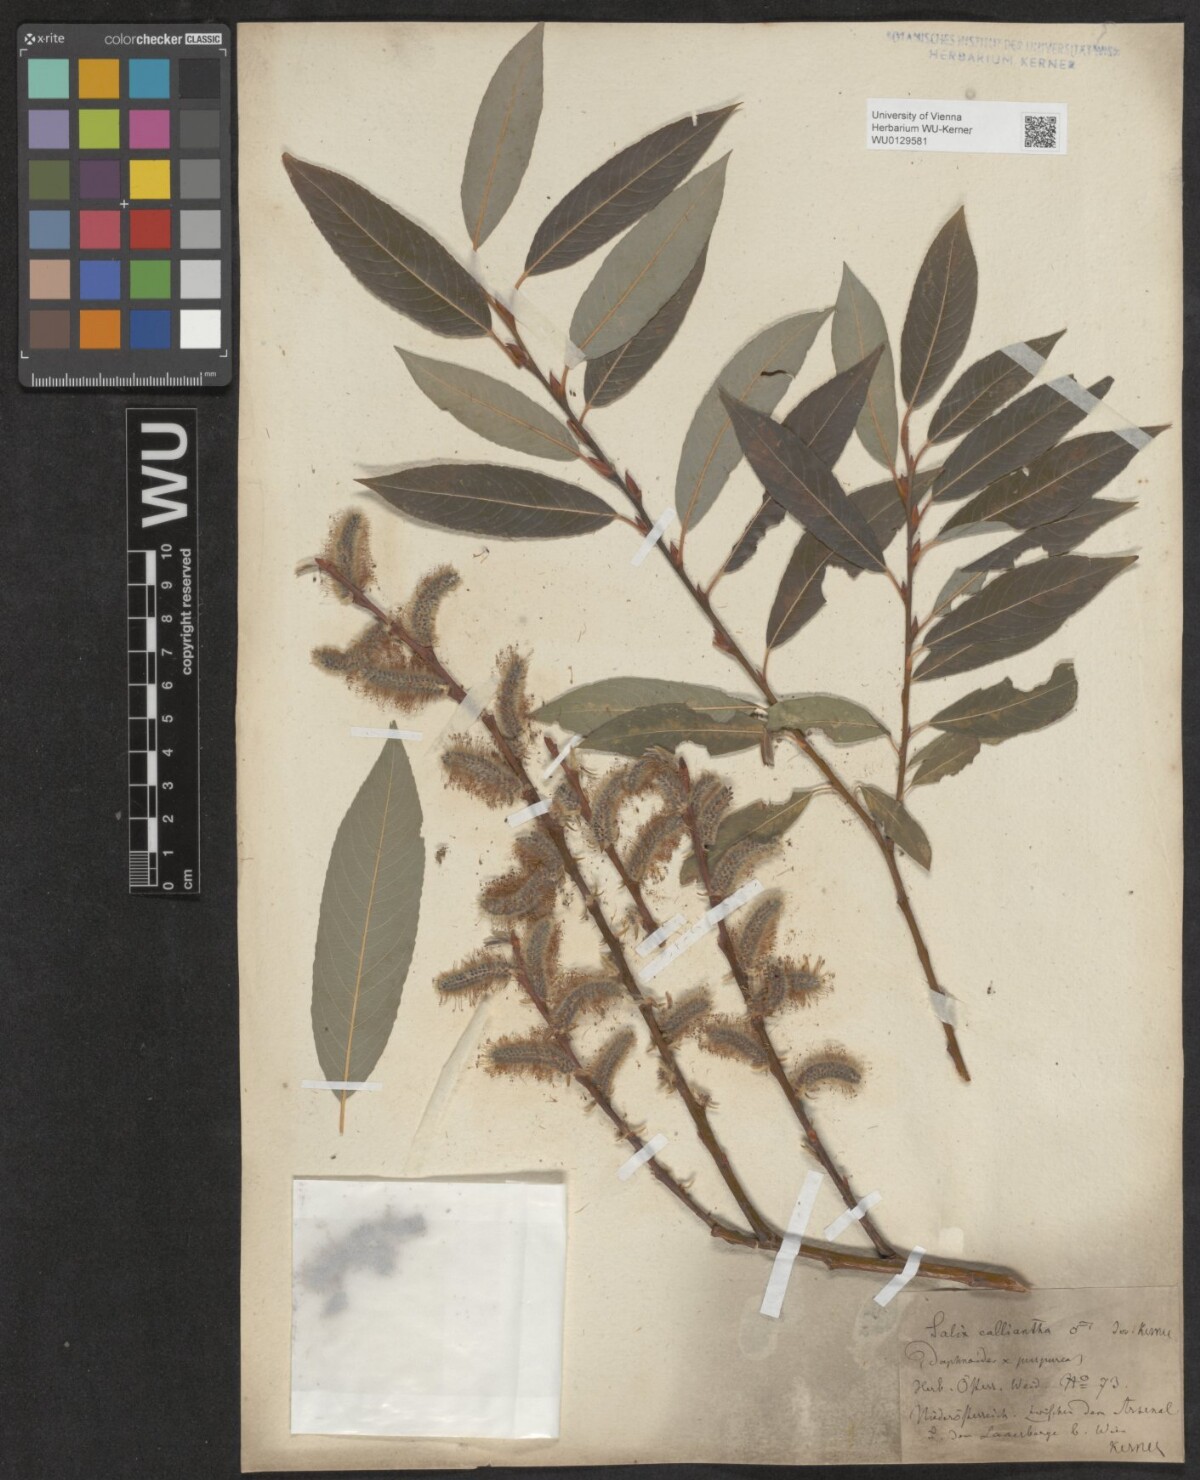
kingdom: Plantae
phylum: Tracheophyta
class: Magnoliopsida
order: Malpighiales
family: Salicaceae
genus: Salix
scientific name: Salix calliantha
